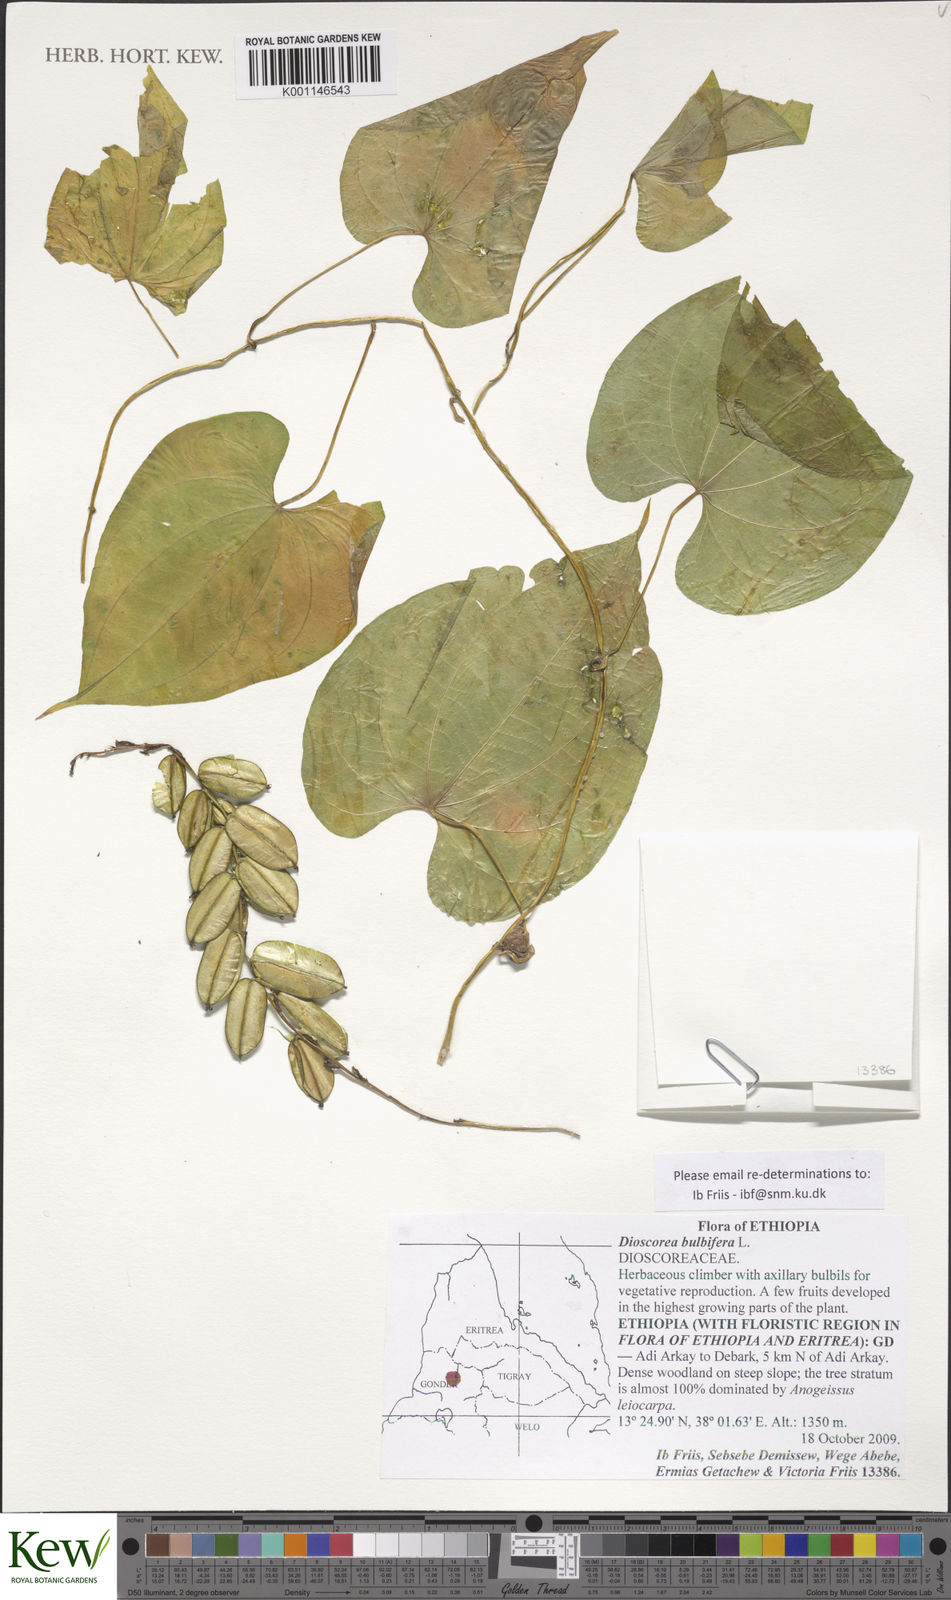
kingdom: Plantae
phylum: Tracheophyta
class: Liliopsida
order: Dioscoreales
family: Dioscoreaceae
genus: Dioscorea
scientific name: Dioscorea bulbifera
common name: Air yam
